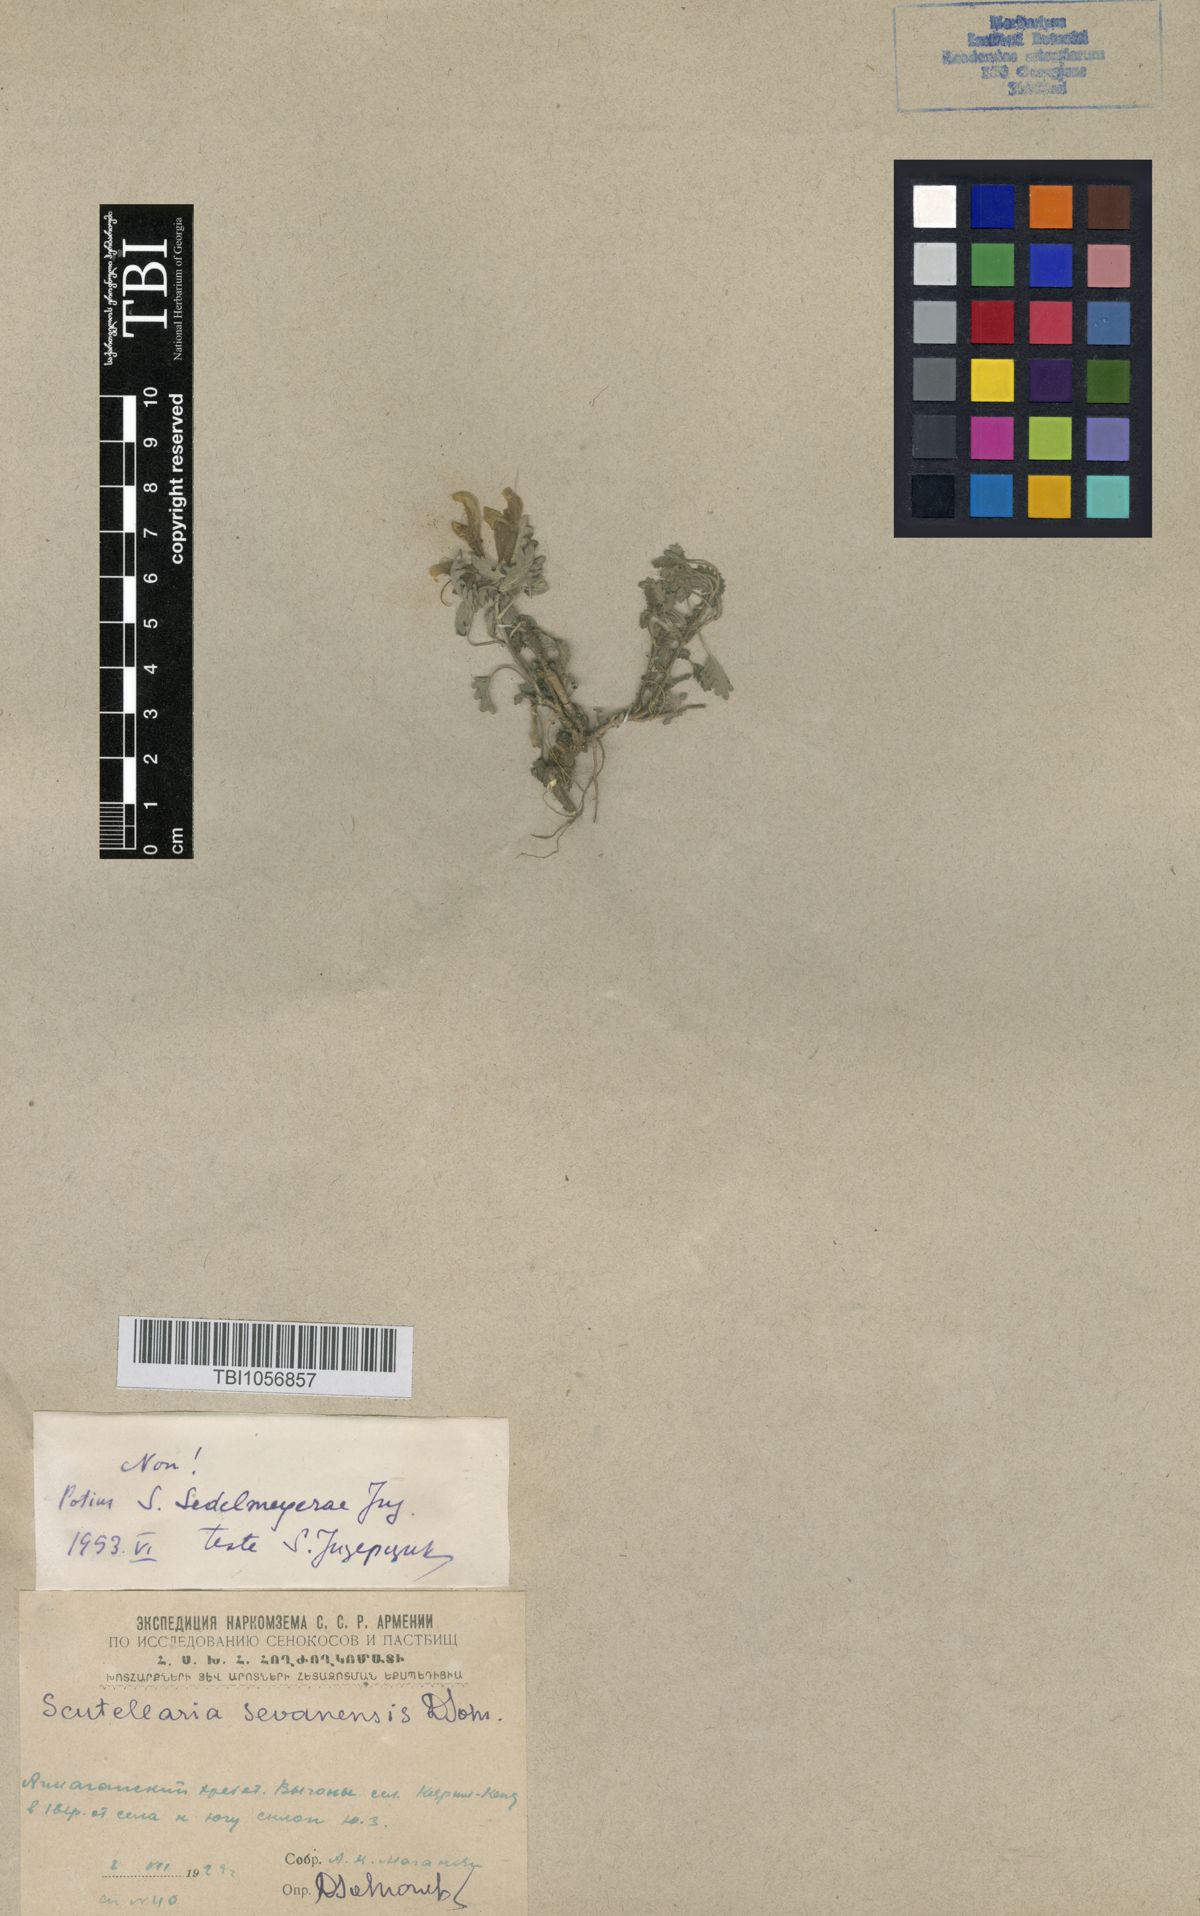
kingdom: Plantae
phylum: Tracheophyta
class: Magnoliopsida
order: Lamiales
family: Lamiaceae
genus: Scutellaria
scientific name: Scutellaria sedelmeyerae
